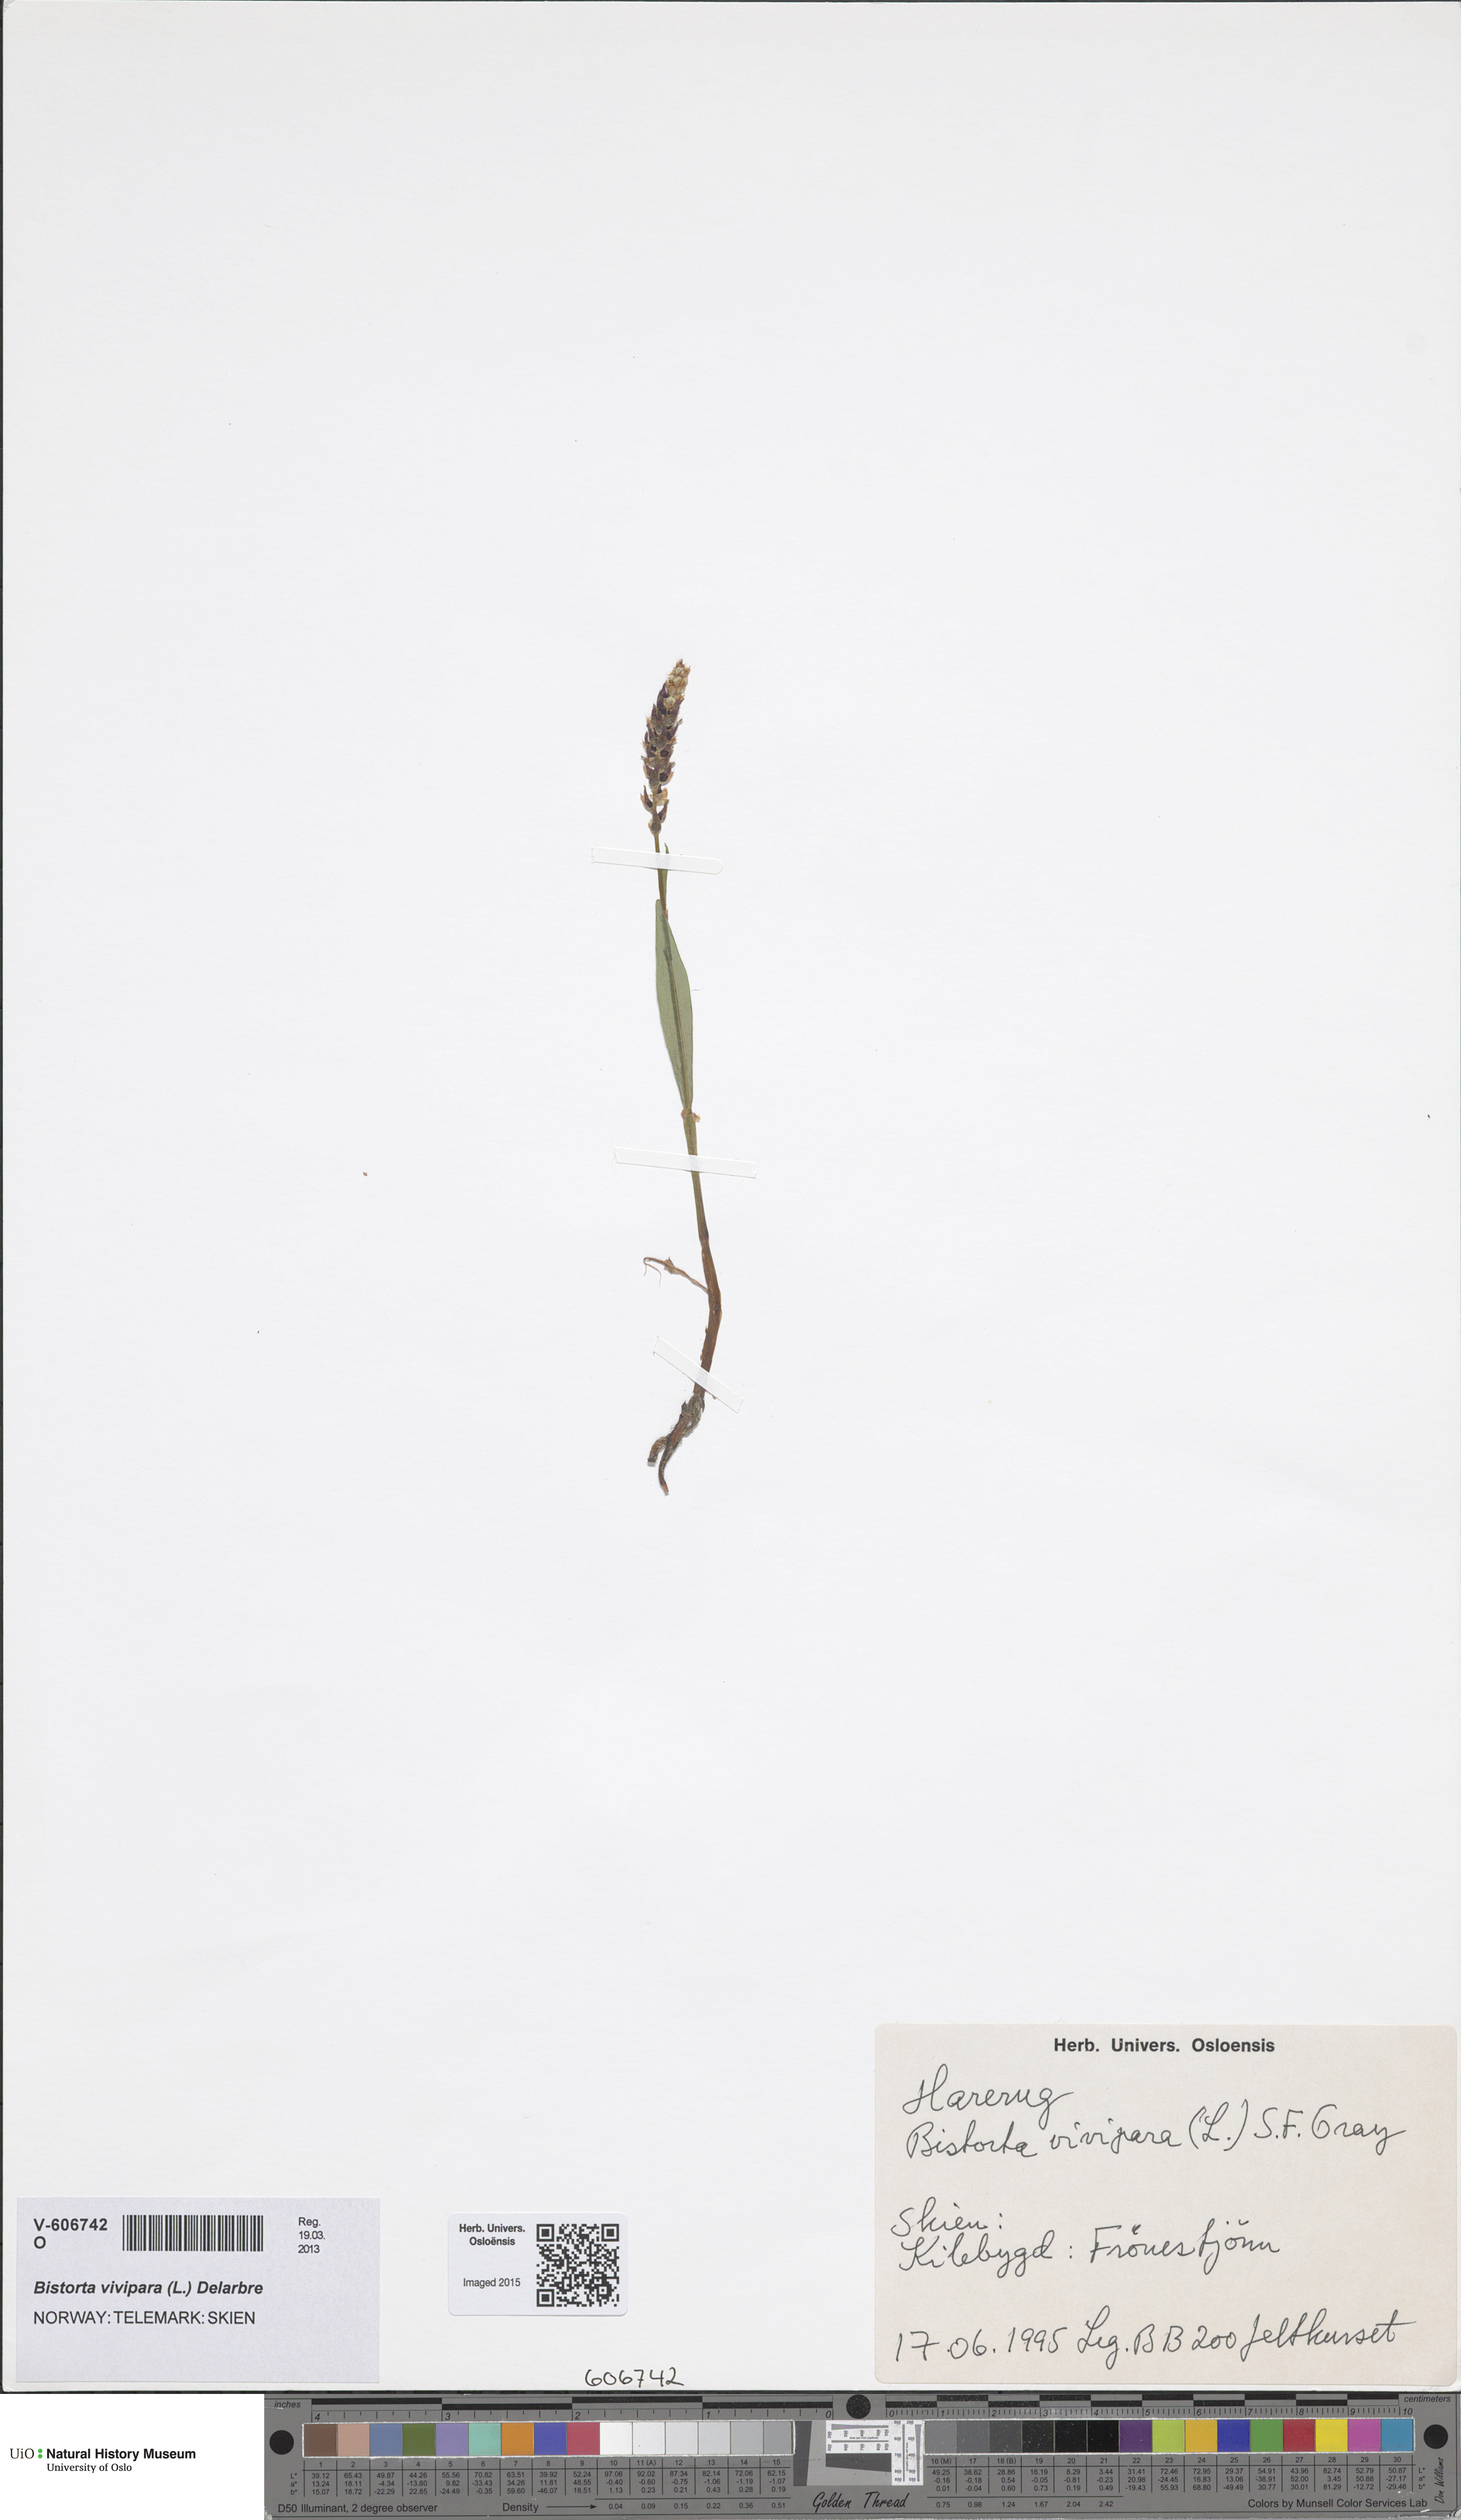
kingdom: Plantae
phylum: Tracheophyta
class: Magnoliopsida
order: Caryophyllales
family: Polygonaceae
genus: Bistorta
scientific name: Bistorta vivipara
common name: Alpine bistort
